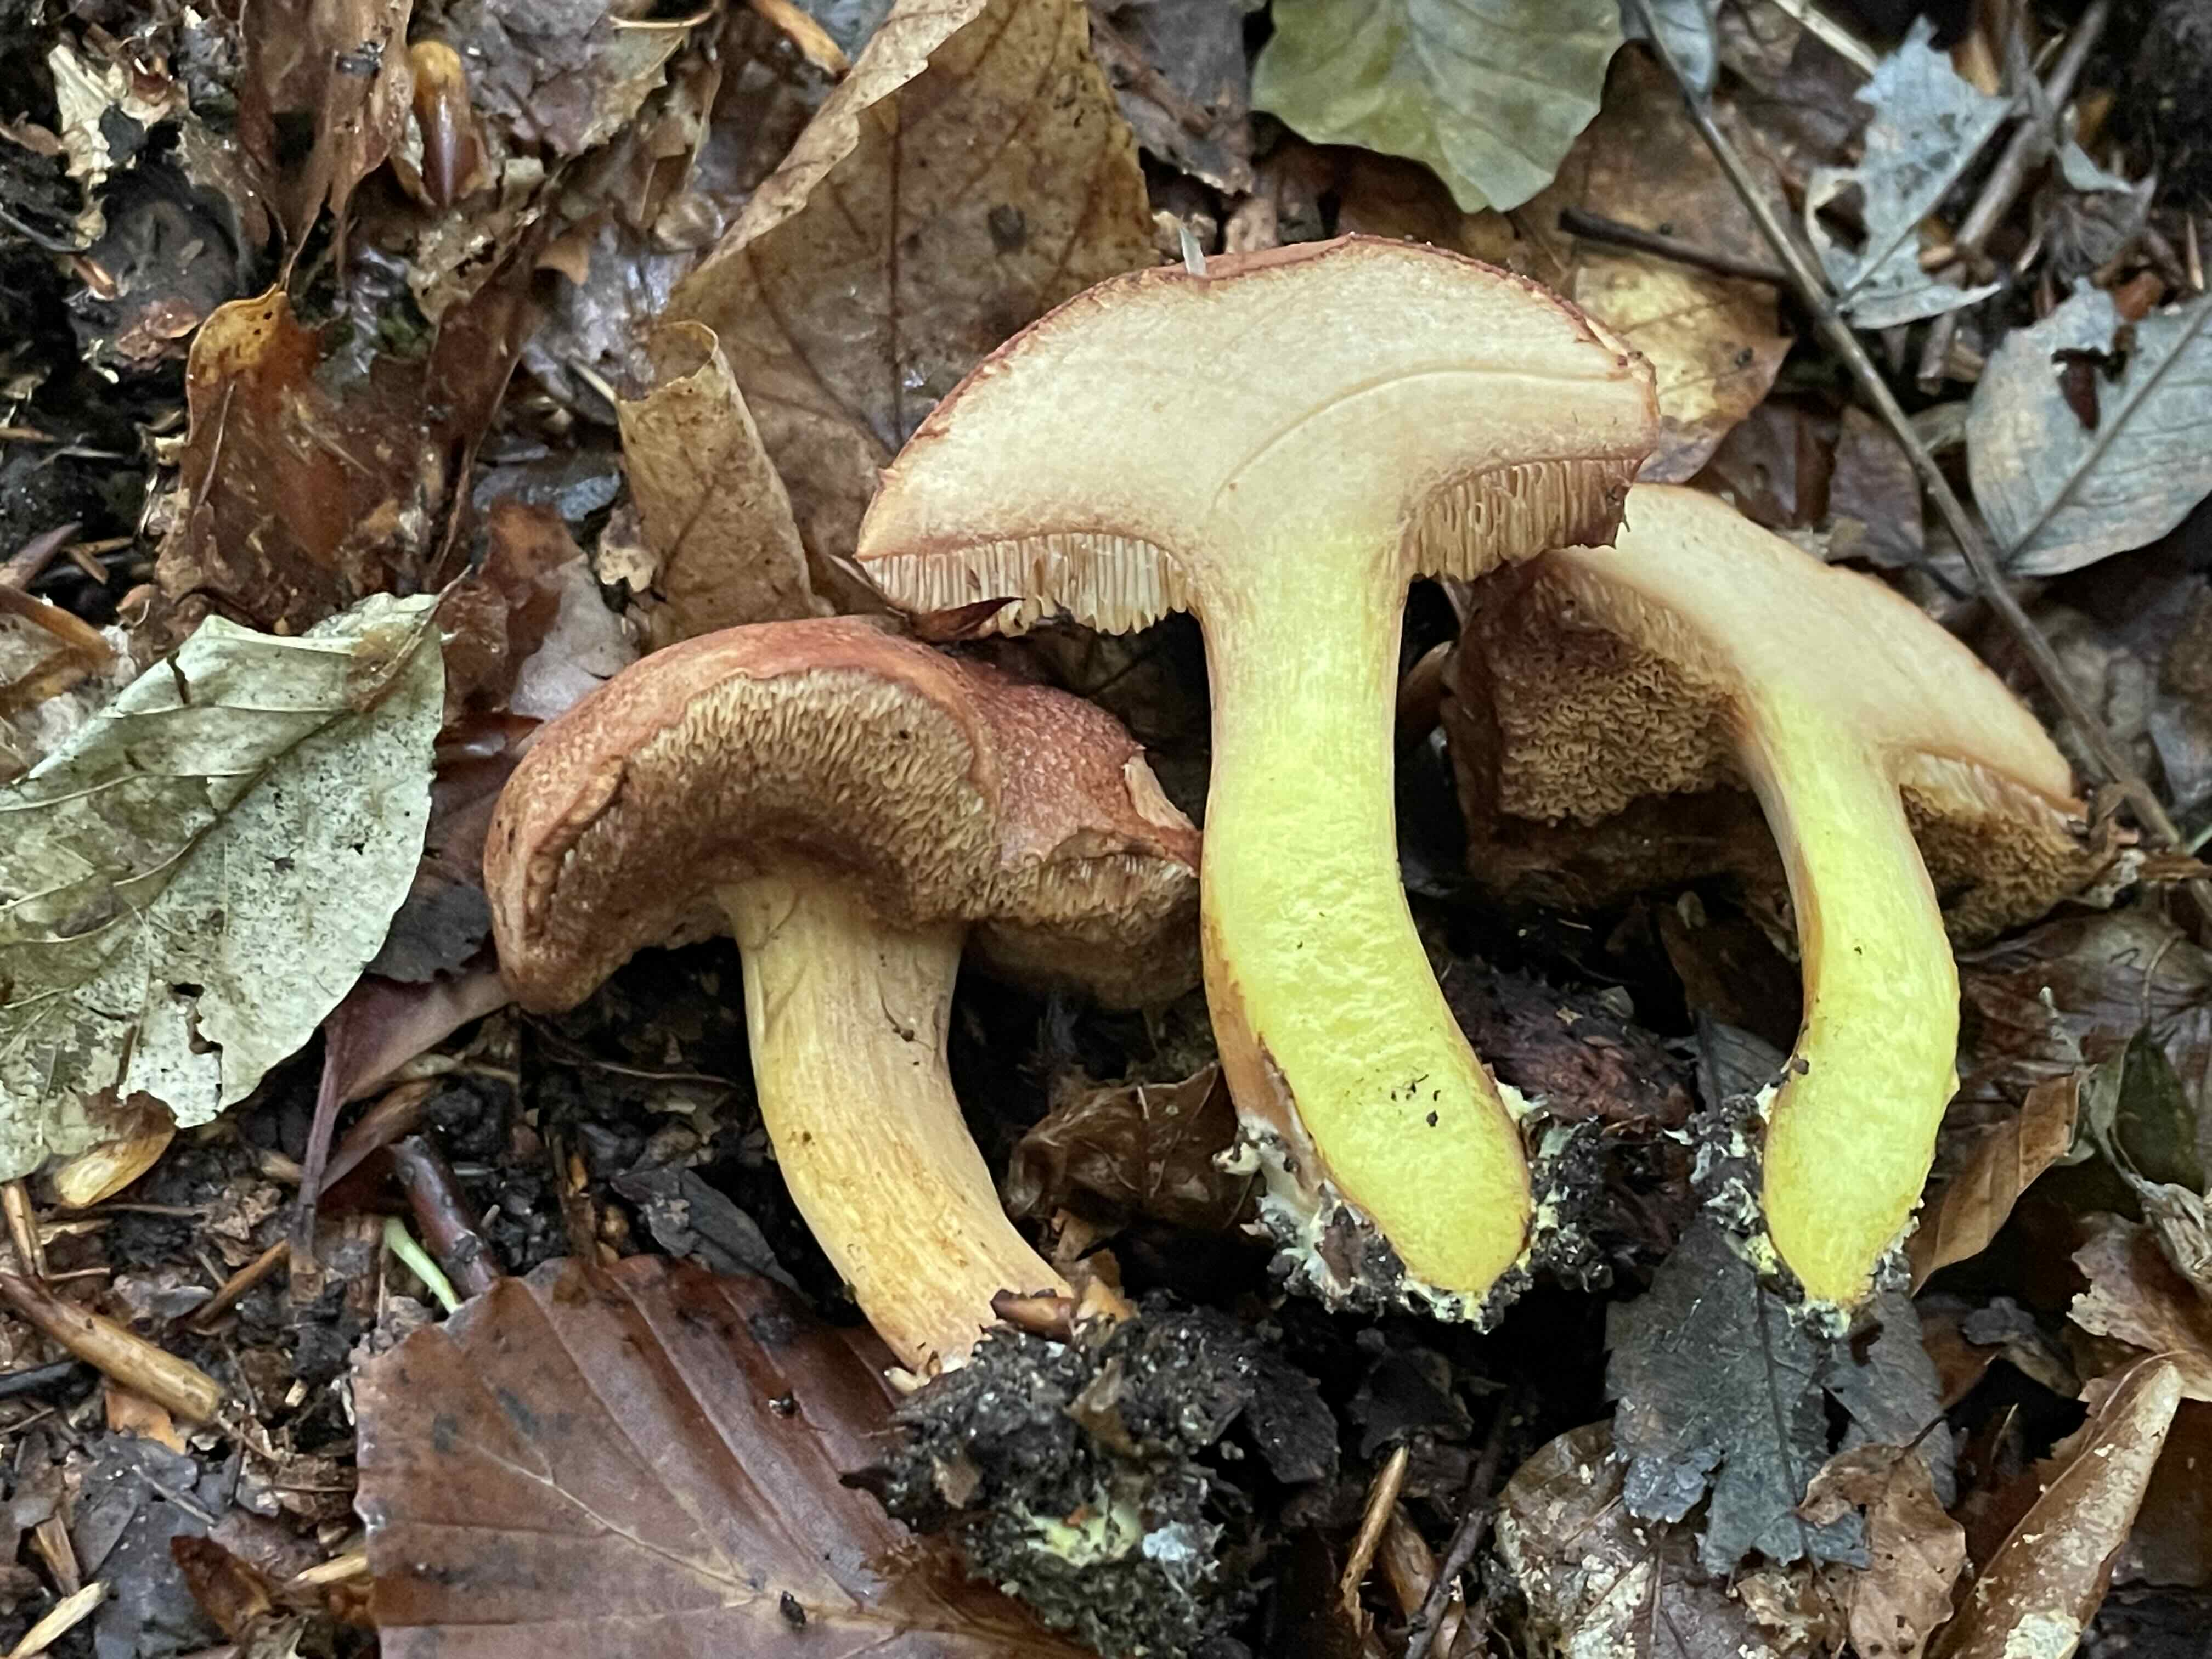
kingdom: Fungi
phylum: Basidiomycota
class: Agaricomycetes
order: Boletales
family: Boletaceae
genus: Chalciporus
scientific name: Chalciporus piperatus
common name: peberrørhat
